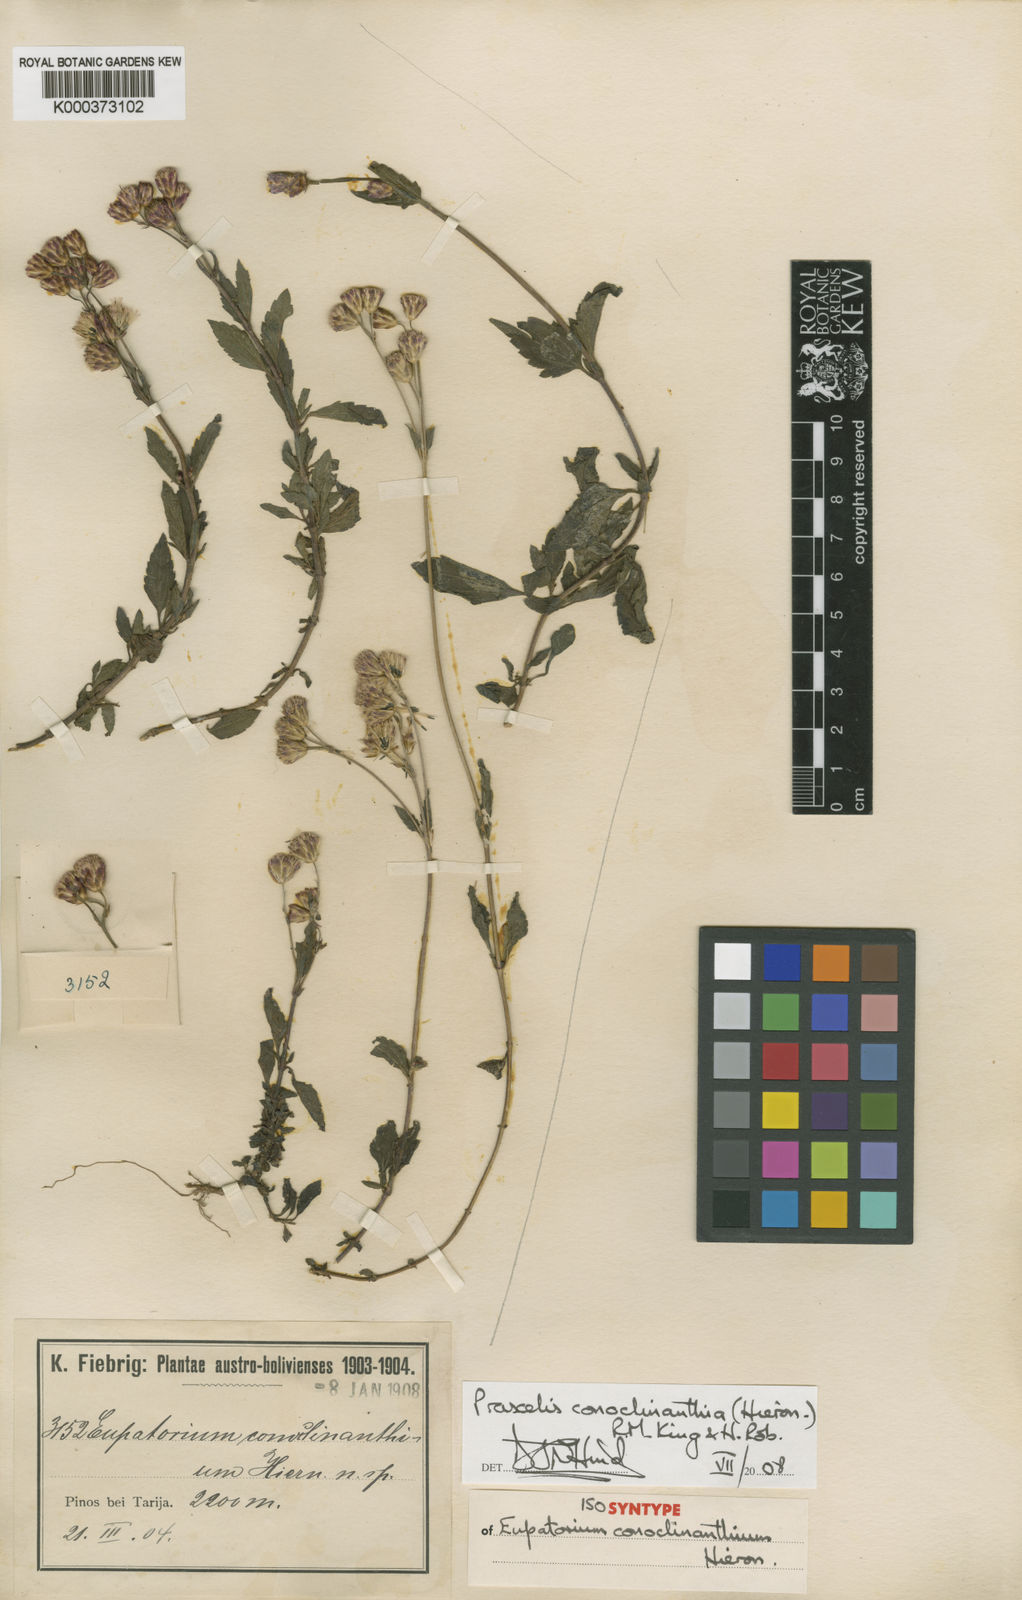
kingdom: Plantae
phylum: Tracheophyta
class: Magnoliopsida
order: Asterales
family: Asteraceae
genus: Praxelis
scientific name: Praxelis conoclinanthia
